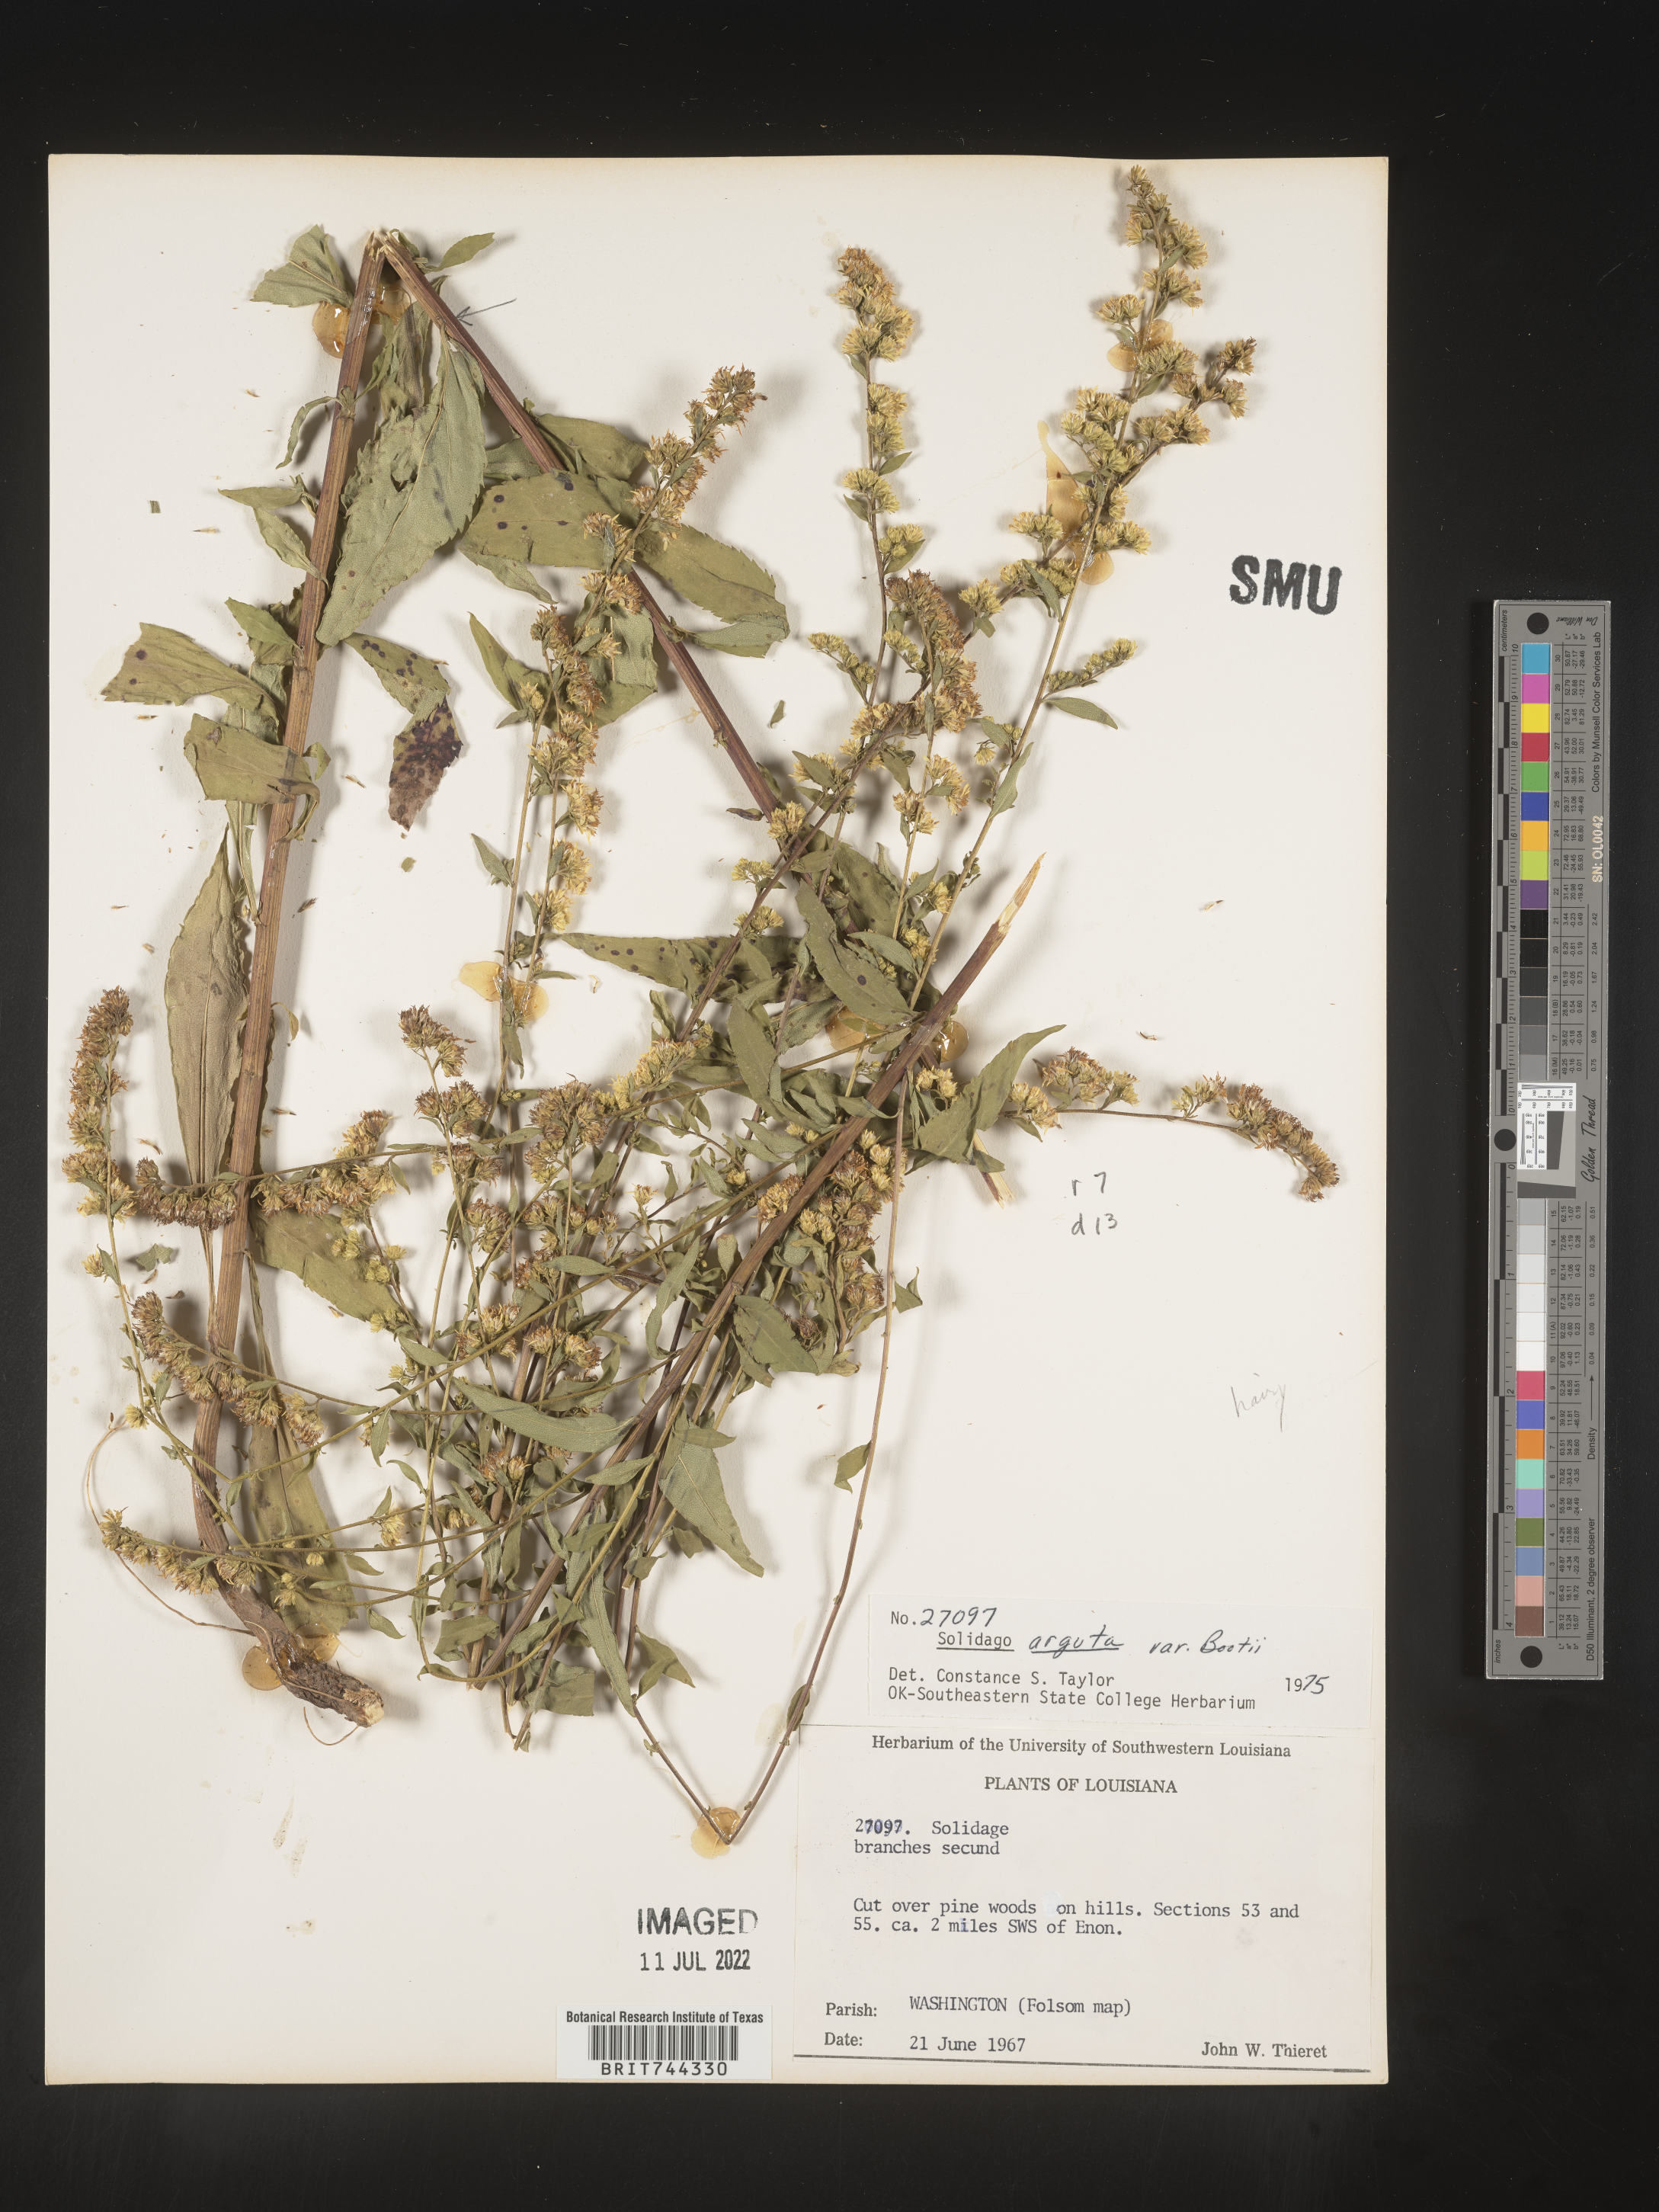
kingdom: Plantae
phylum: Tracheophyta
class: Magnoliopsida
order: Asterales
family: Asteraceae
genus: Solidago
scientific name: Solidago arguta
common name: Atlantic goldenrod
